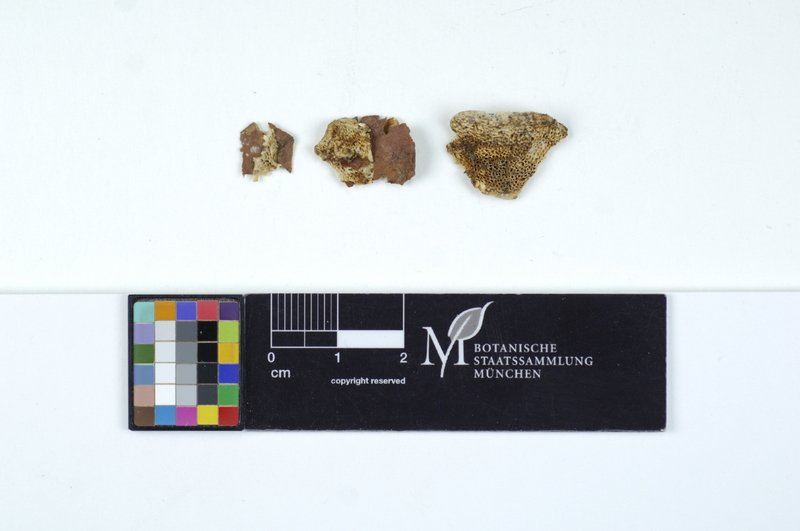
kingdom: Fungi
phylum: Basidiomycota
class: Agaricomycetes
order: Polyporales
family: Fomitopsidaceae
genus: Antrodia
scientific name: Antrodia ramentacea
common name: Honeycomb crust
